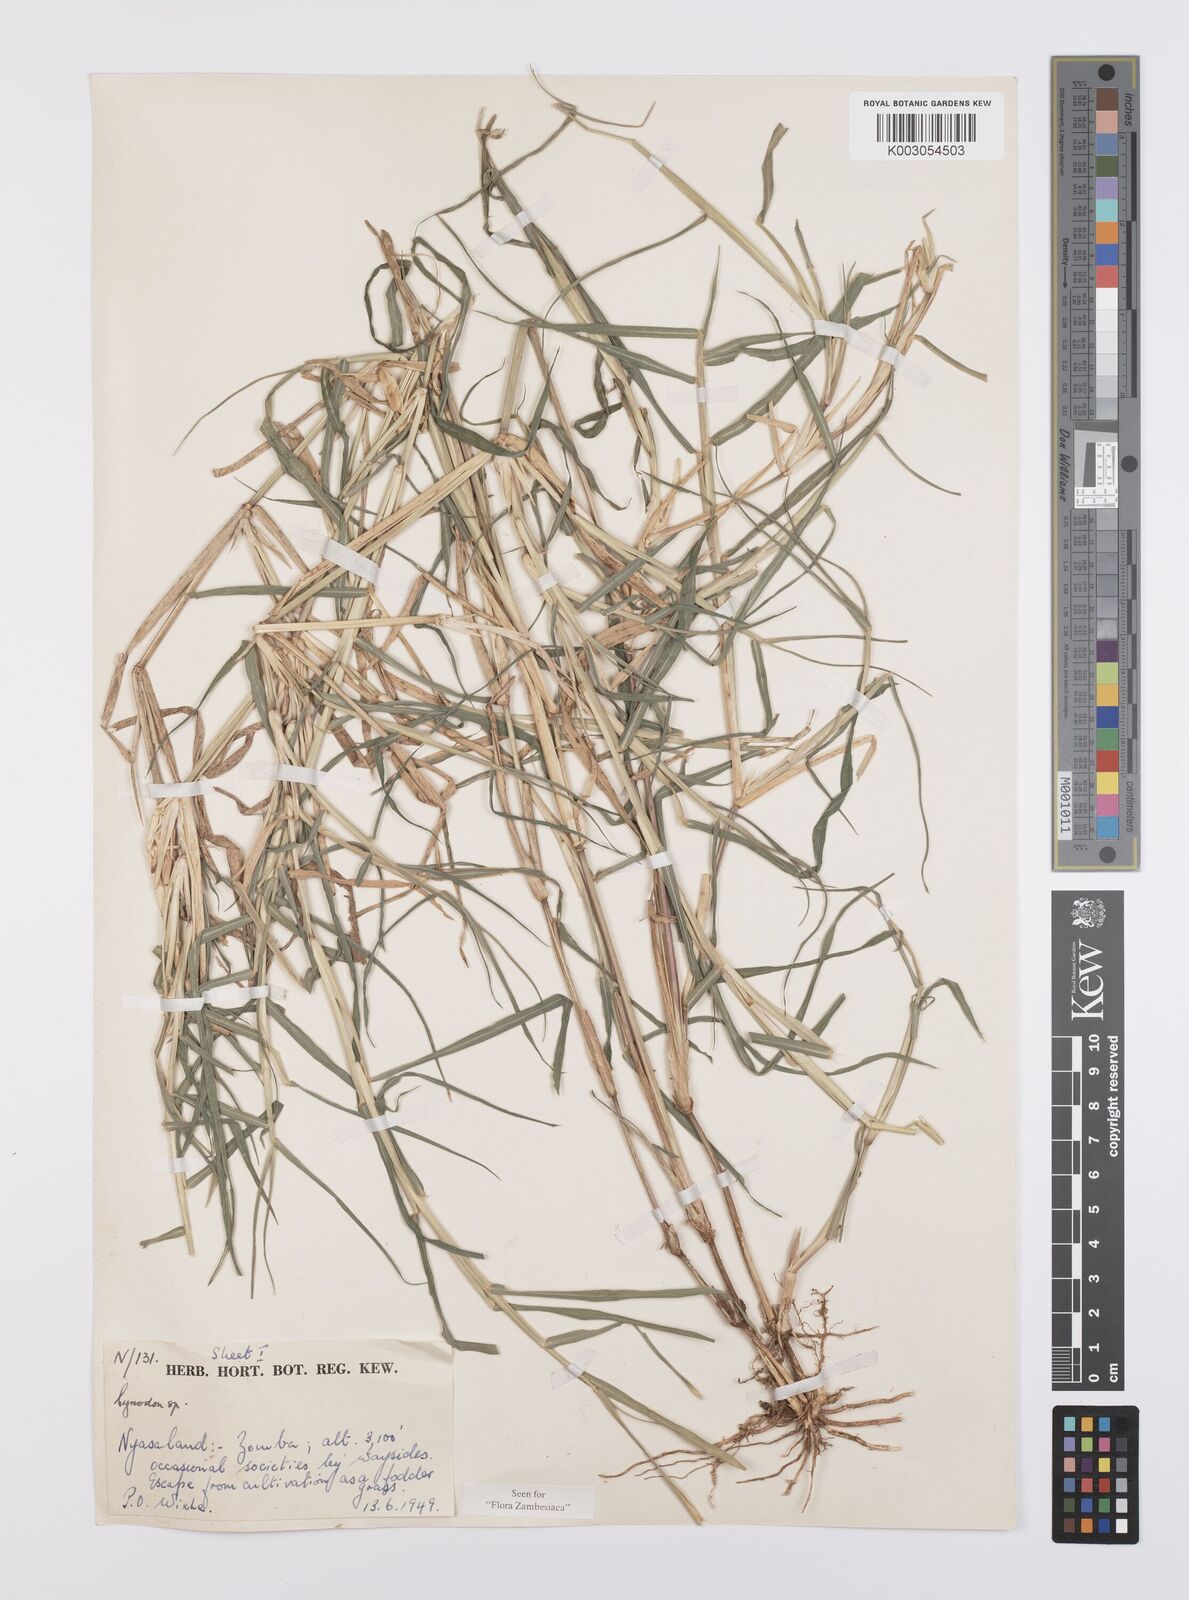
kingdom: Plantae
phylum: Tracheophyta
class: Liliopsida
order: Poales
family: Poaceae
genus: Cynodon
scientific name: Cynodon aethiopicus
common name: Ethiopian dogstooth grass
